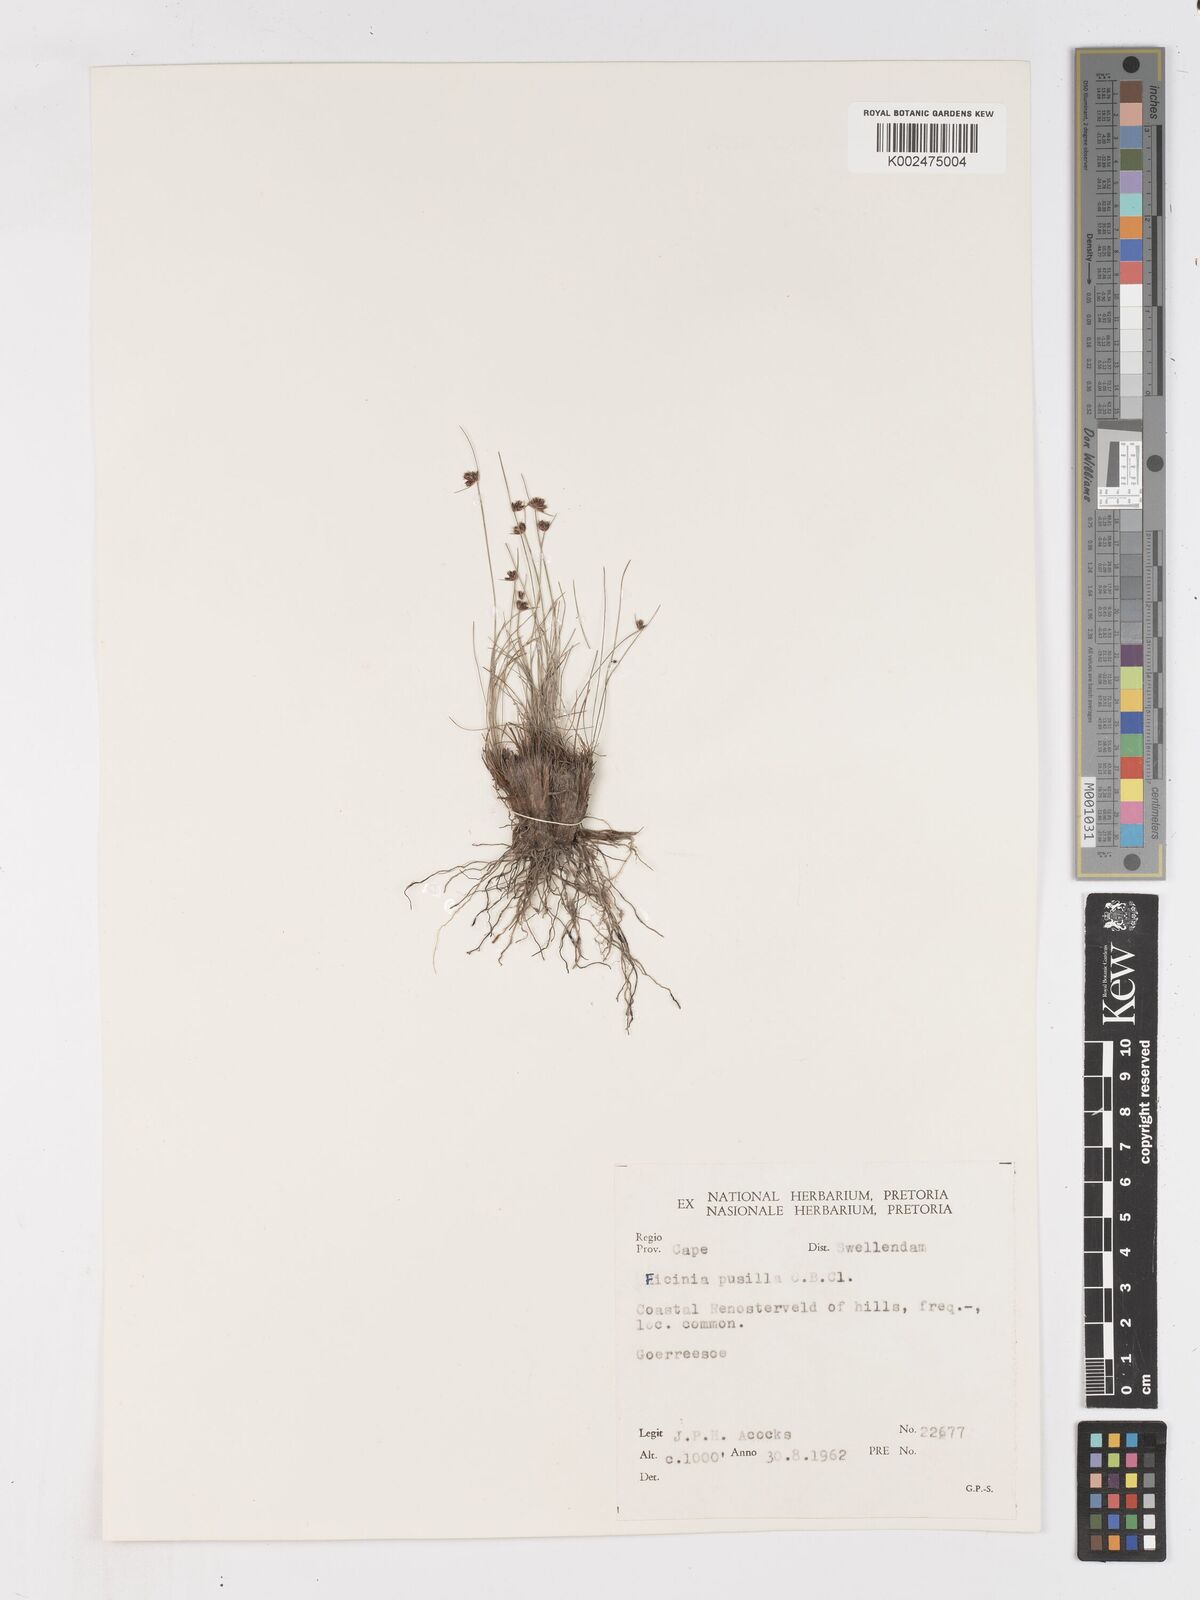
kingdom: Plantae
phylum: Tracheophyta
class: Liliopsida
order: Poales
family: Cyperaceae
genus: Ficinia
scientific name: Ficinia pusilla
